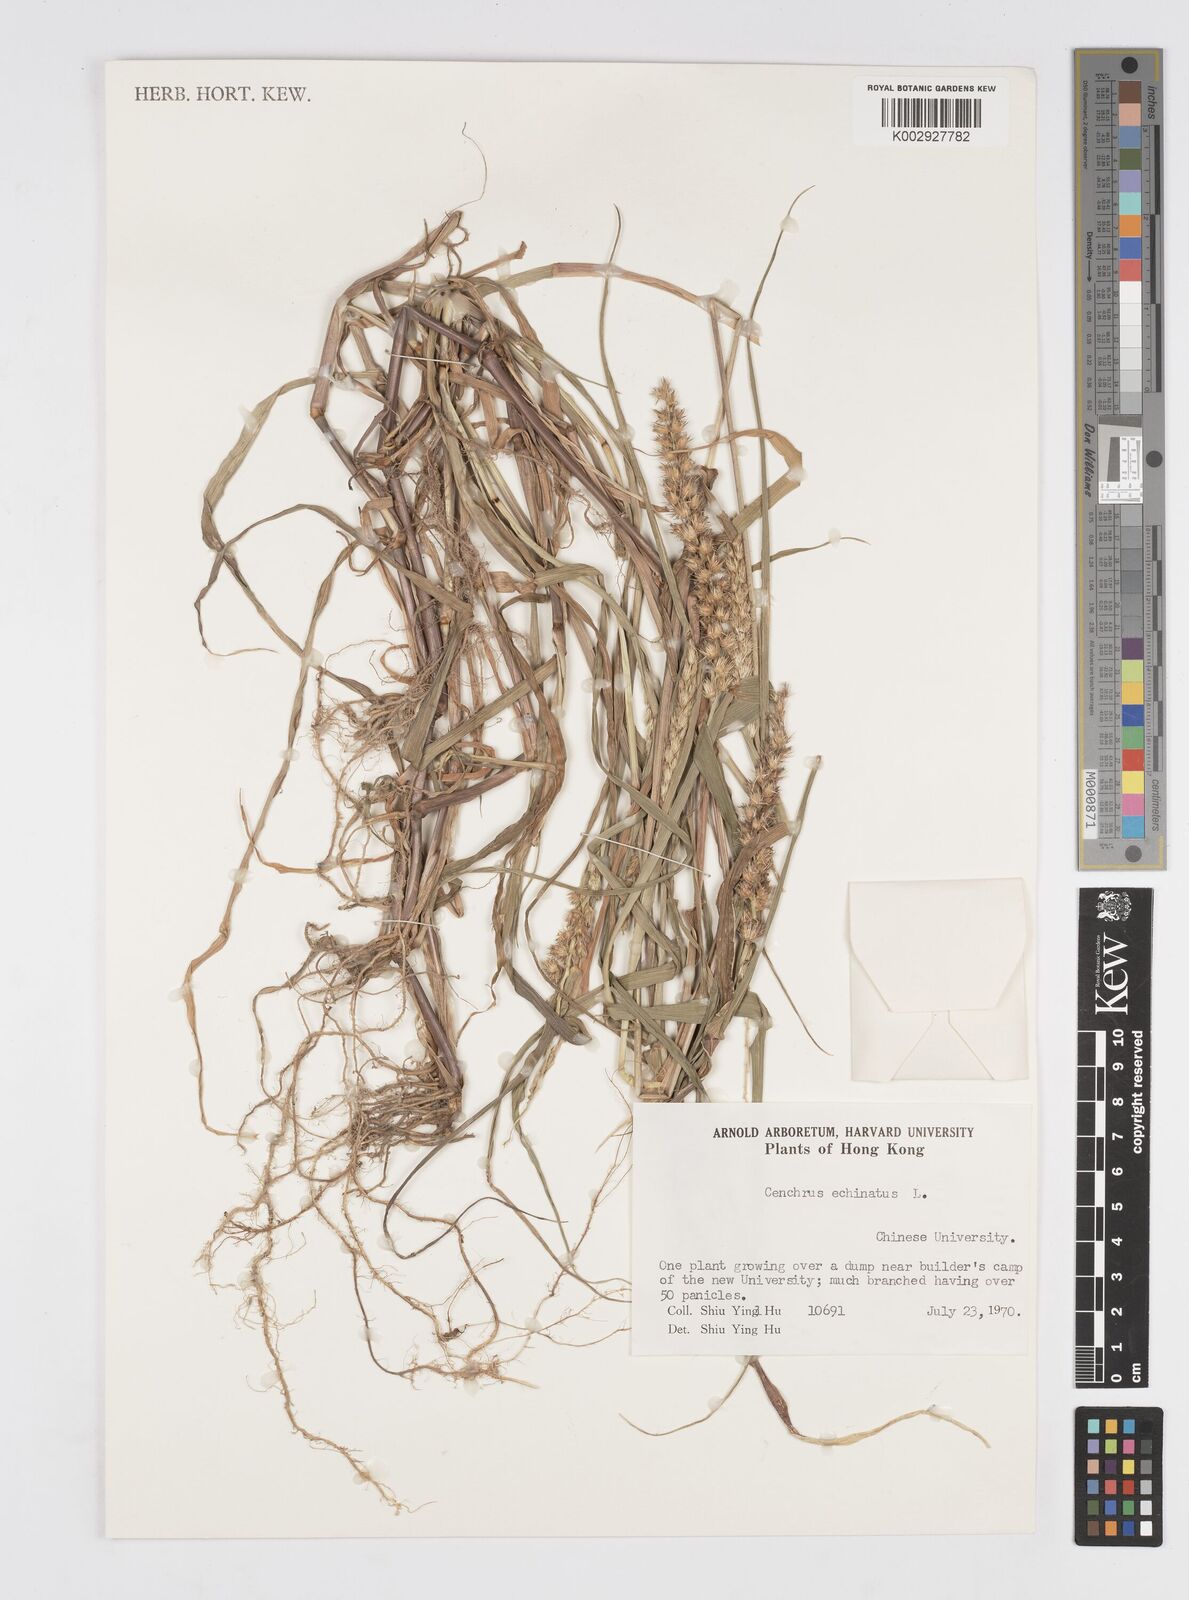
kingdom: Plantae
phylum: Tracheophyta
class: Liliopsida
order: Poales
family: Poaceae
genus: Cenchrus
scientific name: Cenchrus echinatus
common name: Southern sandbur
